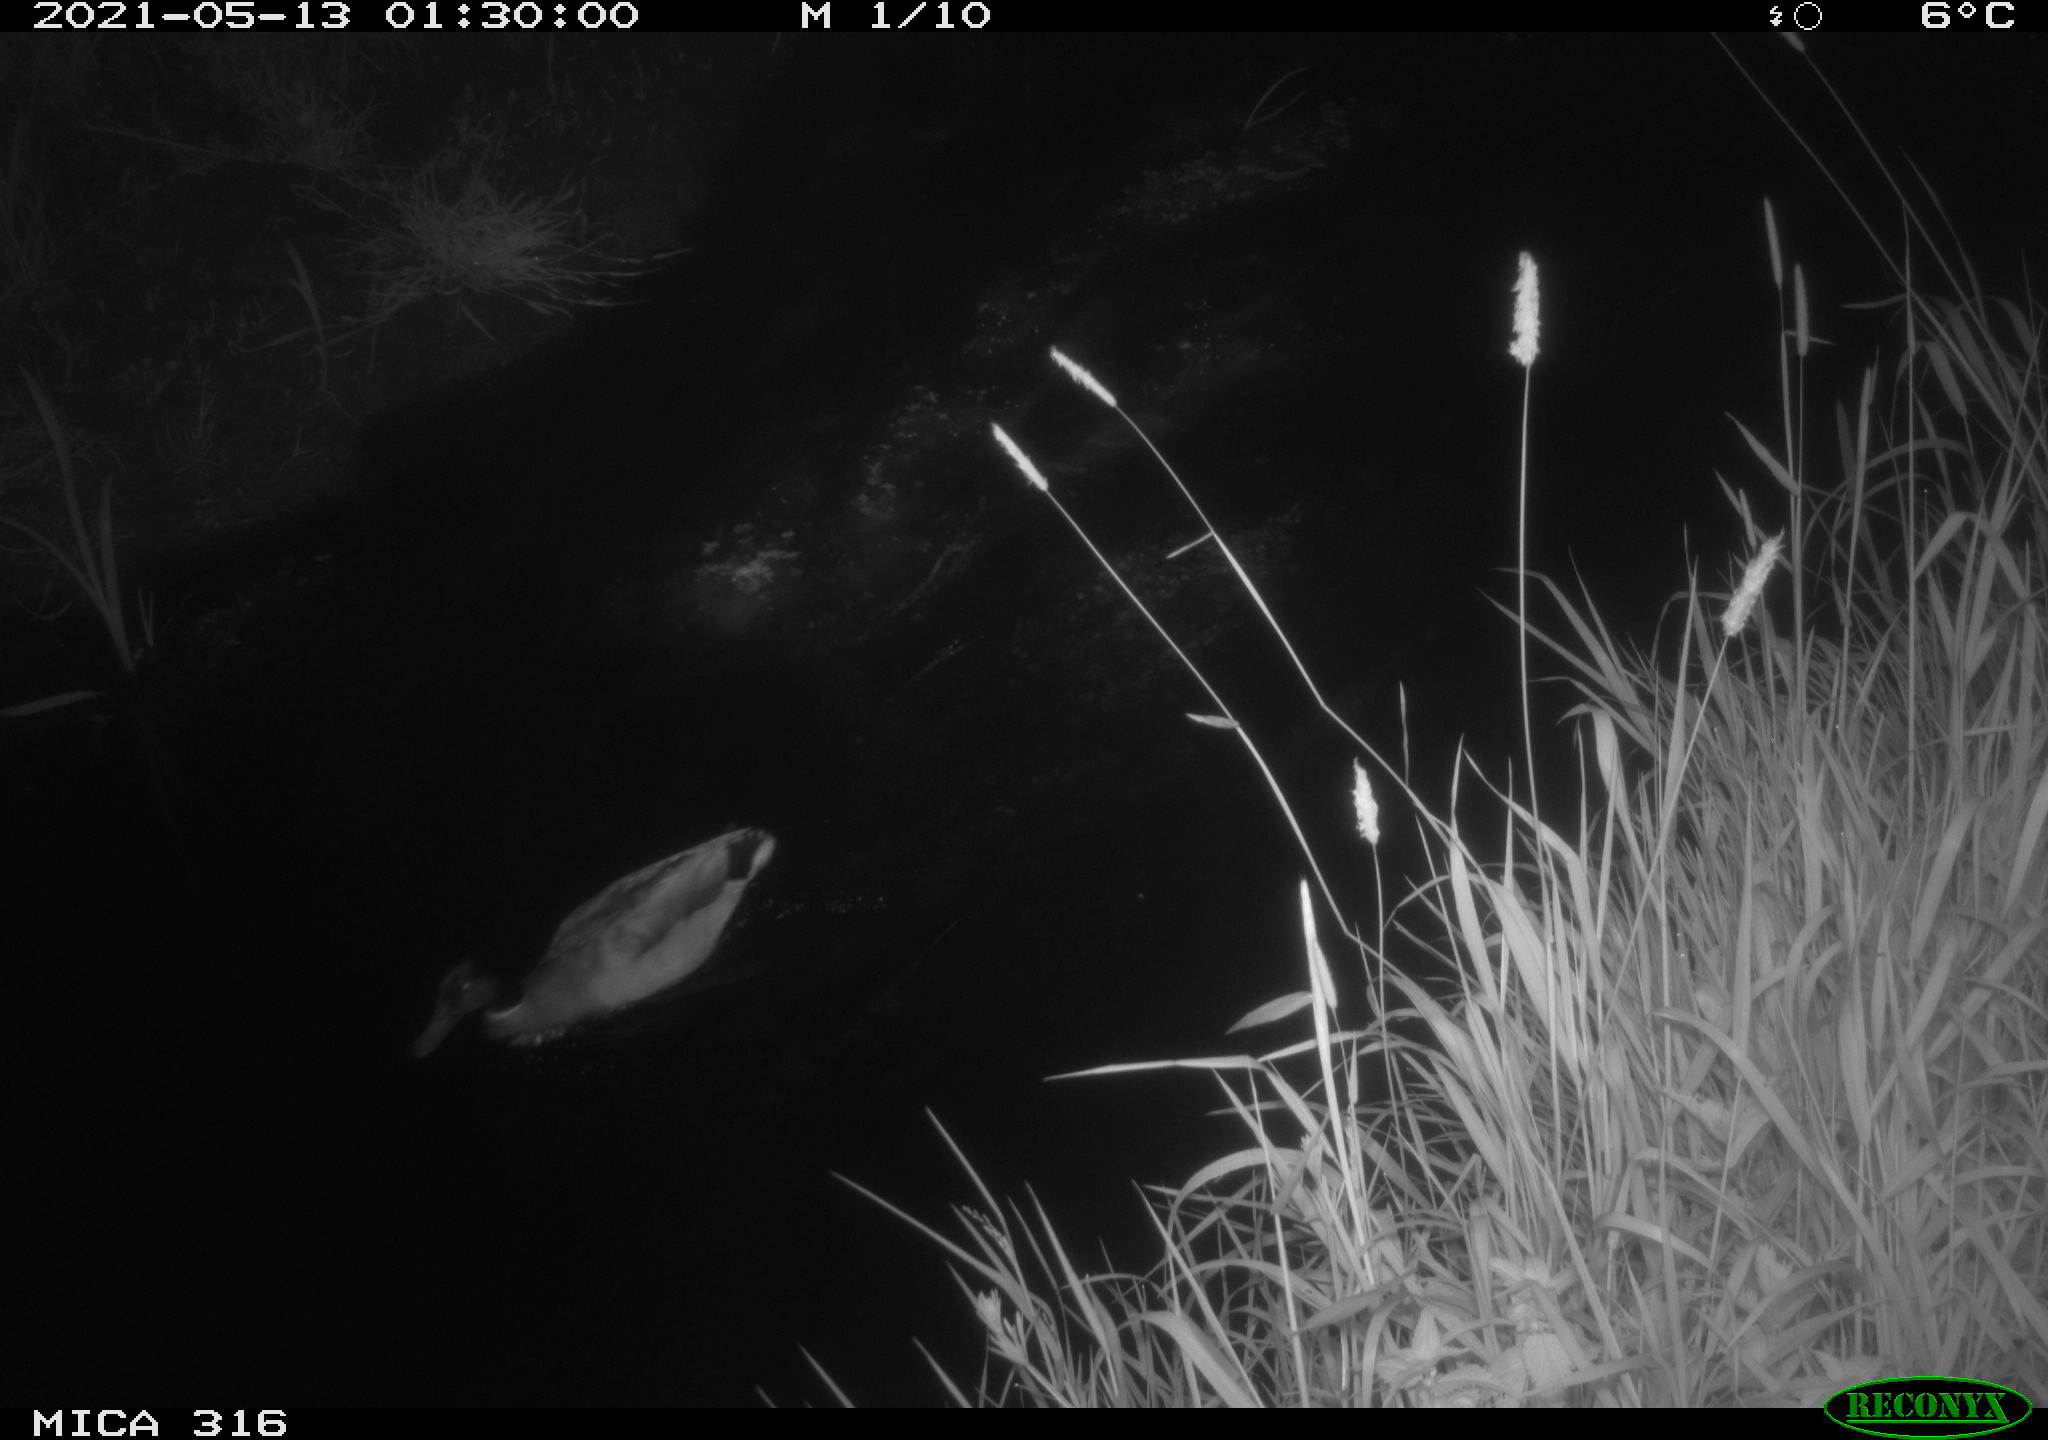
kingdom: Animalia
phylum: Chordata
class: Aves
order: Anseriformes
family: Anatidae
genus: Anas
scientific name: Anas platyrhynchos
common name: Mallard
